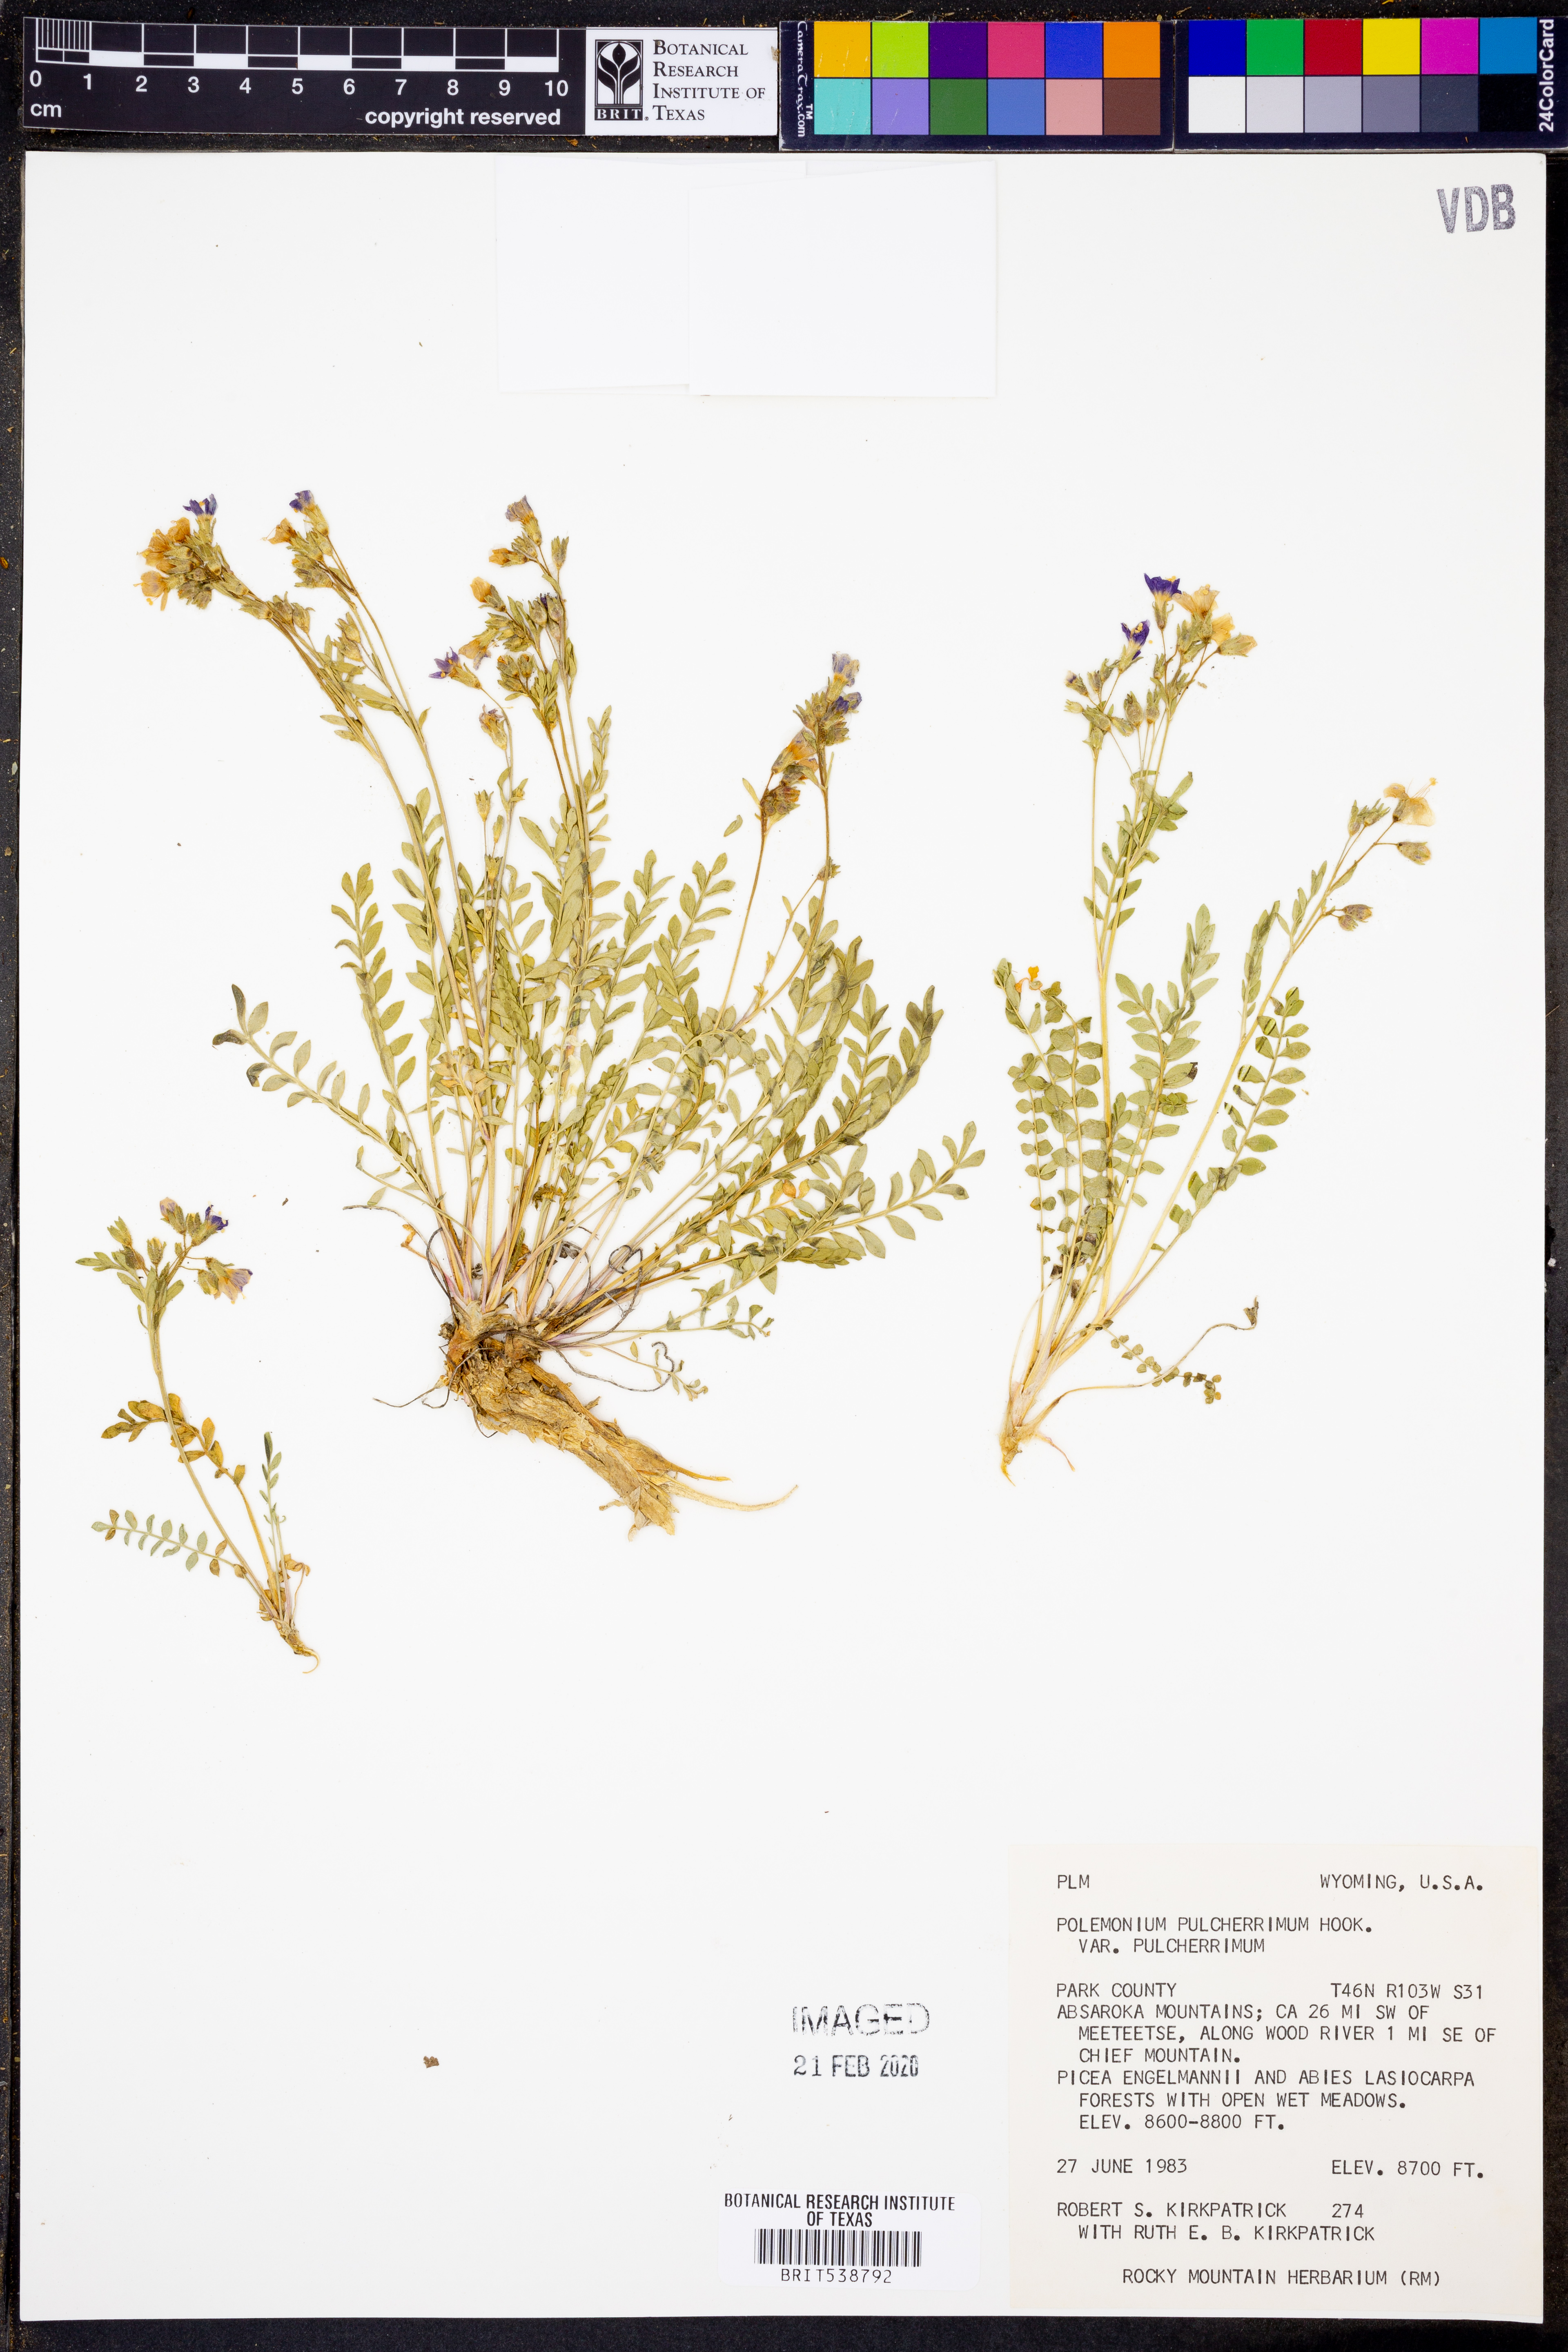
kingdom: Plantae
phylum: Tracheophyta
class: Magnoliopsida
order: Ericales
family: Polemoniaceae
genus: Polemonium
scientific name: Polemonium pulcherrimum
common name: Short jacob's-ladder
